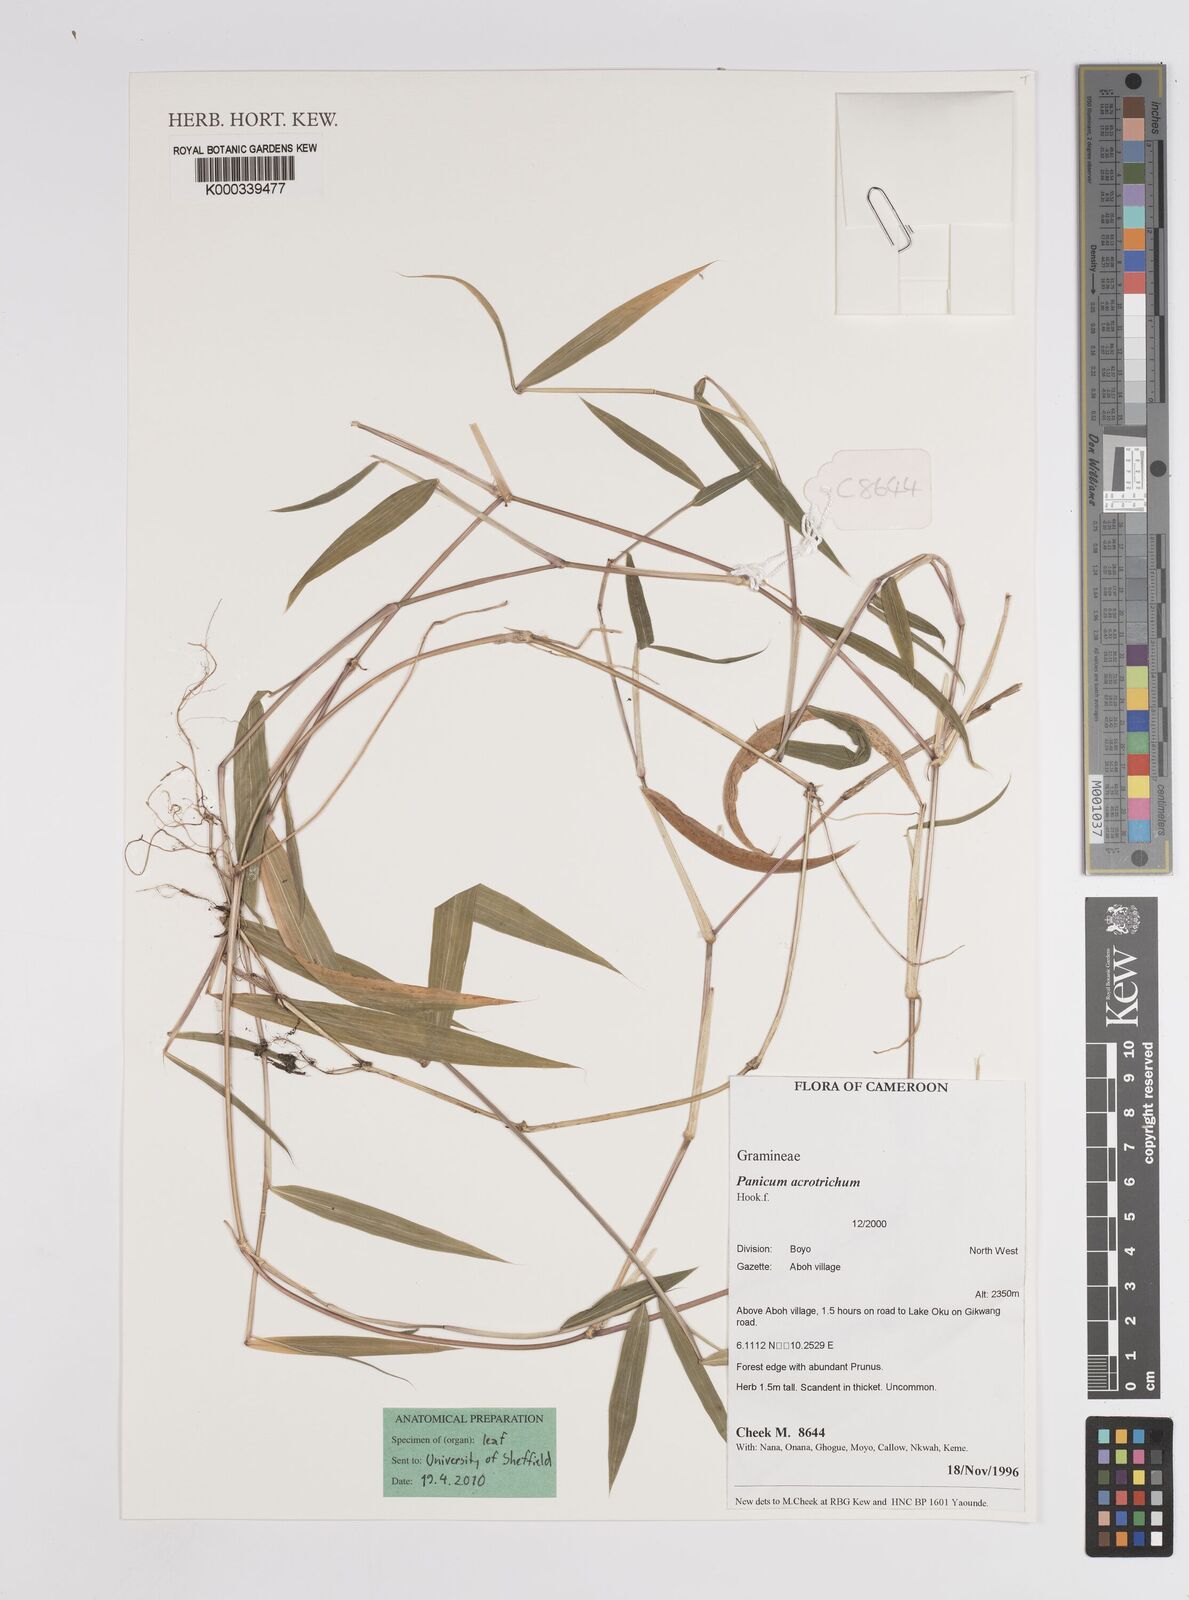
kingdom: Plantae
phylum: Tracheophyta
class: Liliopsida
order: Poales
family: Poaceae
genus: Panicum
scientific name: Panicum acrotrichum
